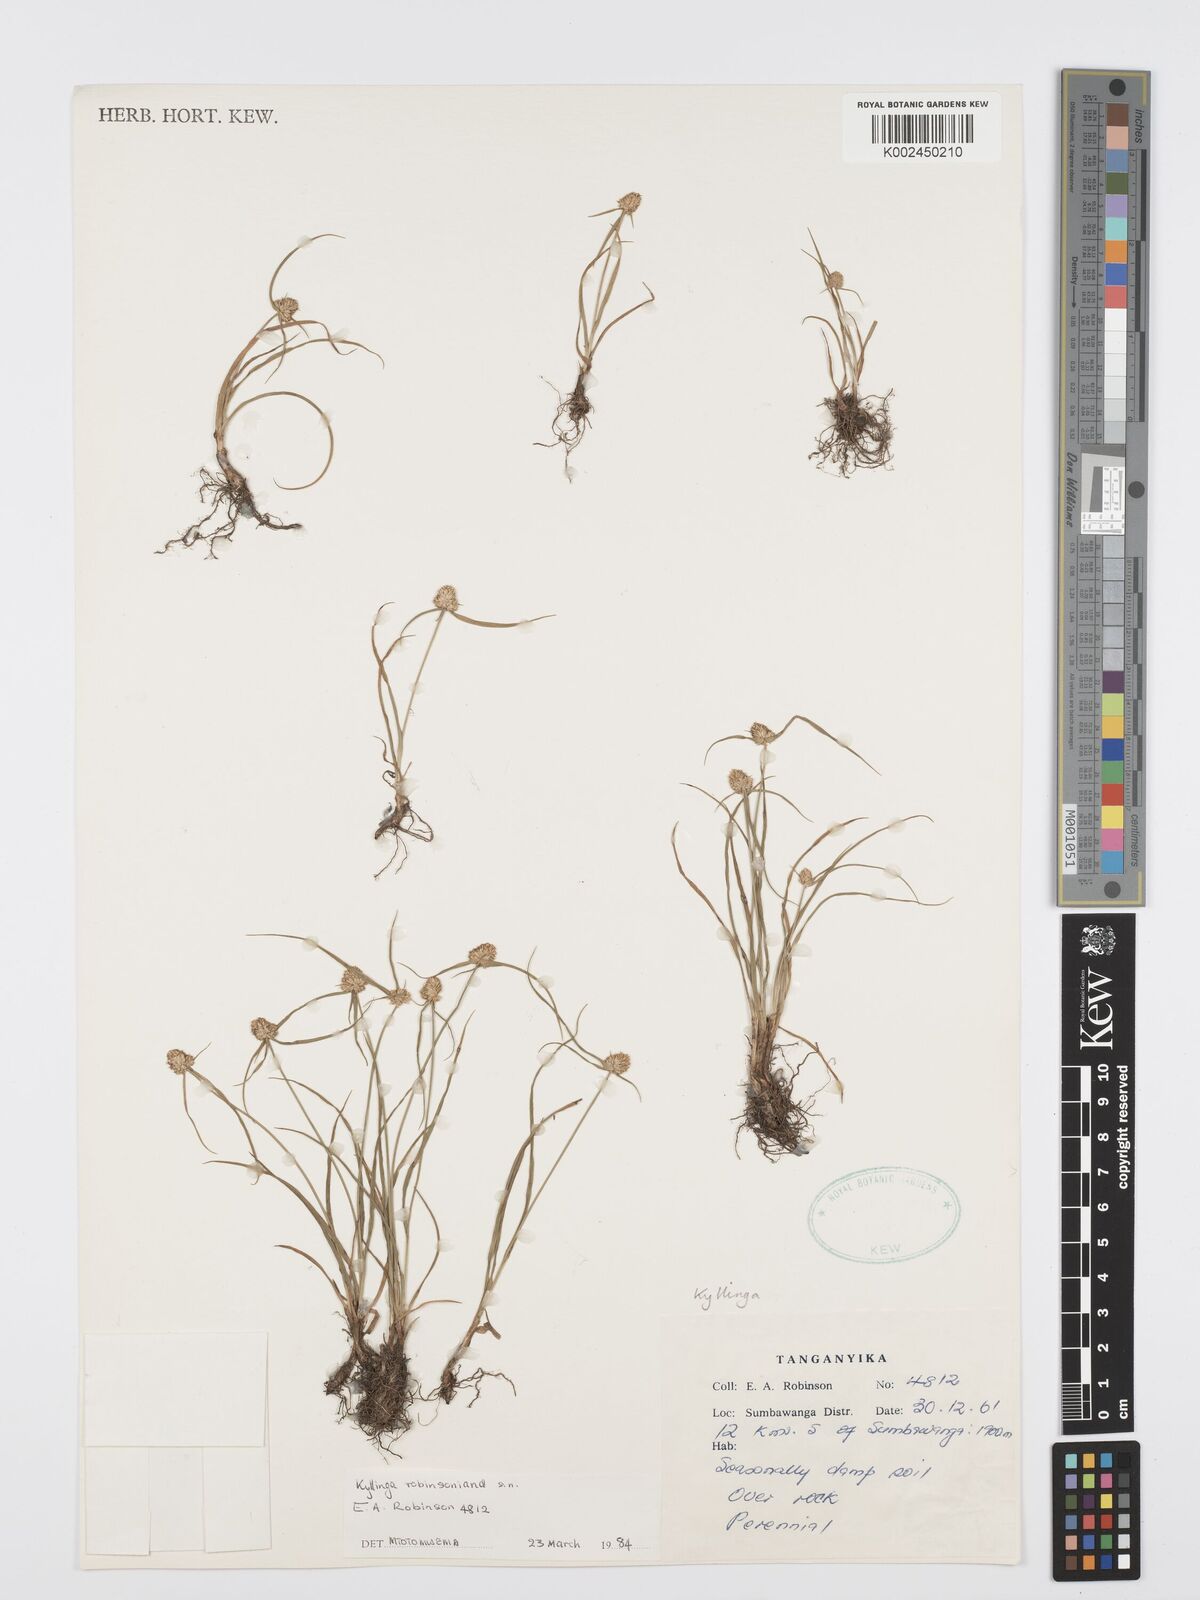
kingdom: Plantae
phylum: Tracheophyta
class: Liliopsida
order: Poales
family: Cyperaceae
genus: Cyperus
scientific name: Cyperus robinsonianus
